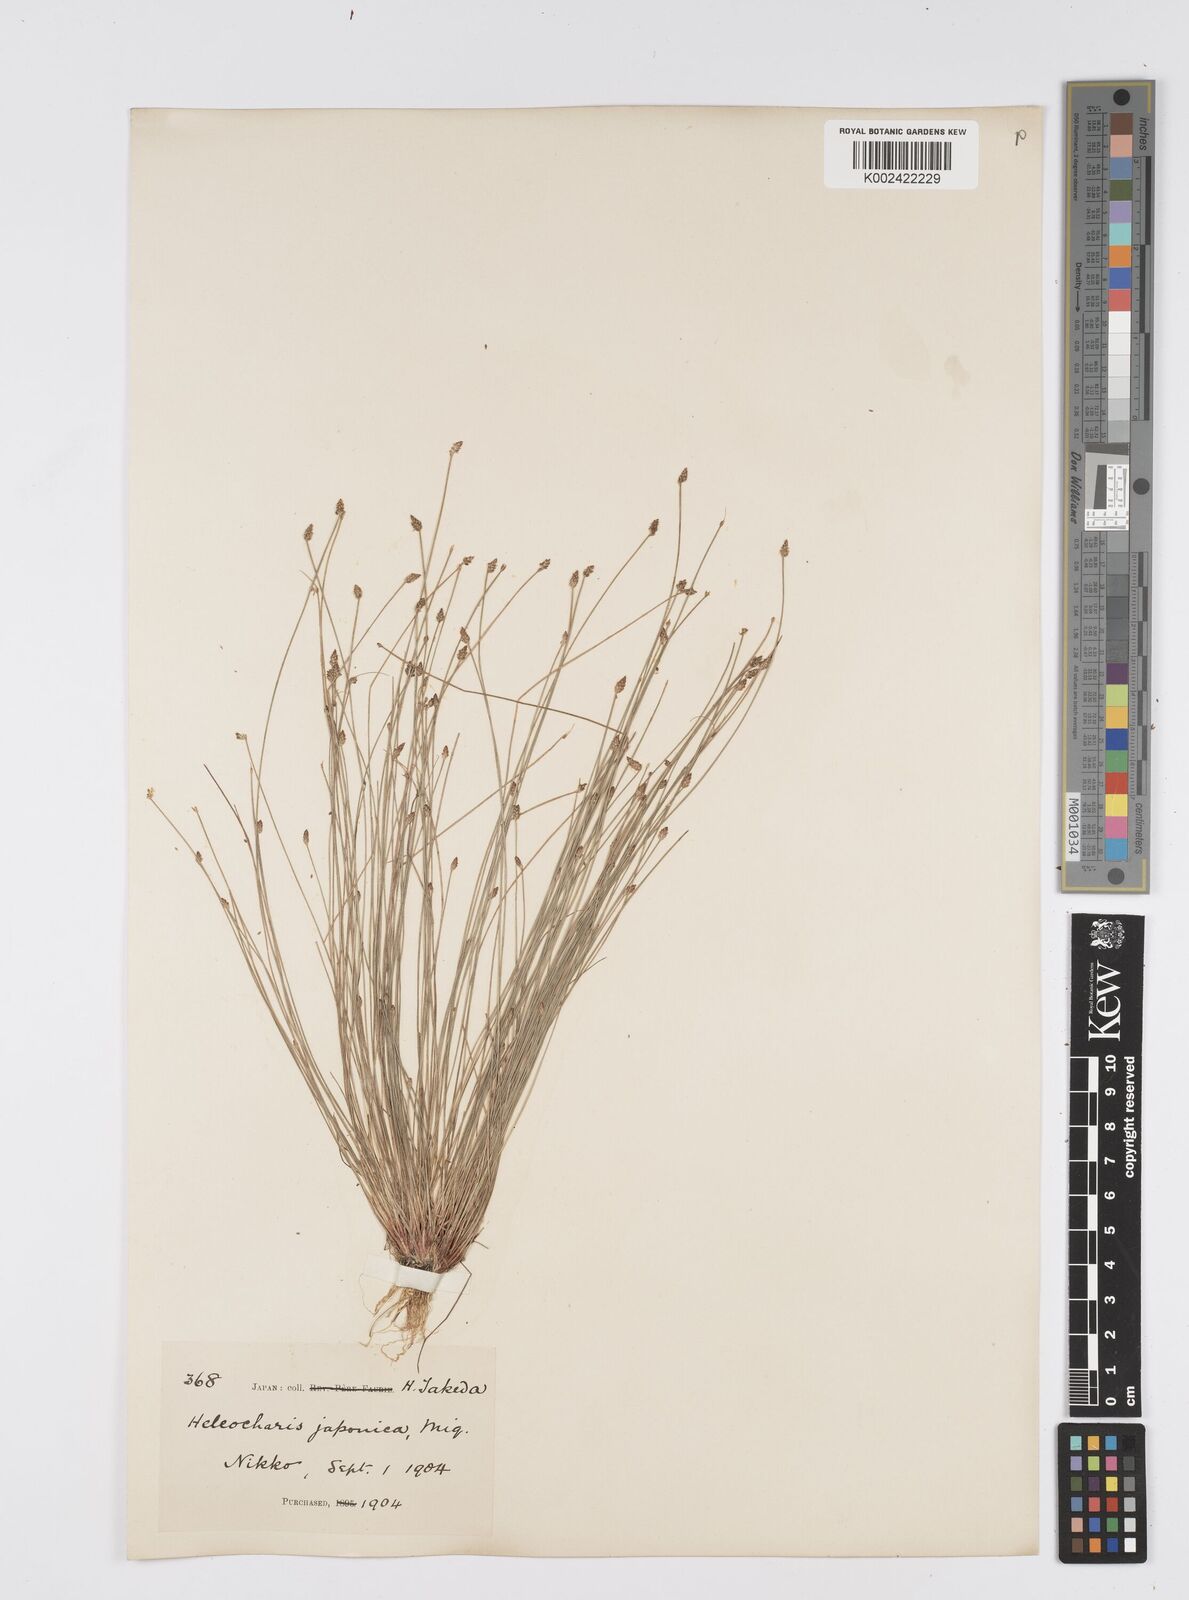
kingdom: Plantae
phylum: Tracheophyta
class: Liliopsida
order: Poales
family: Cyperaceae
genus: Eleocharis
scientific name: Eleocharis pellucida
